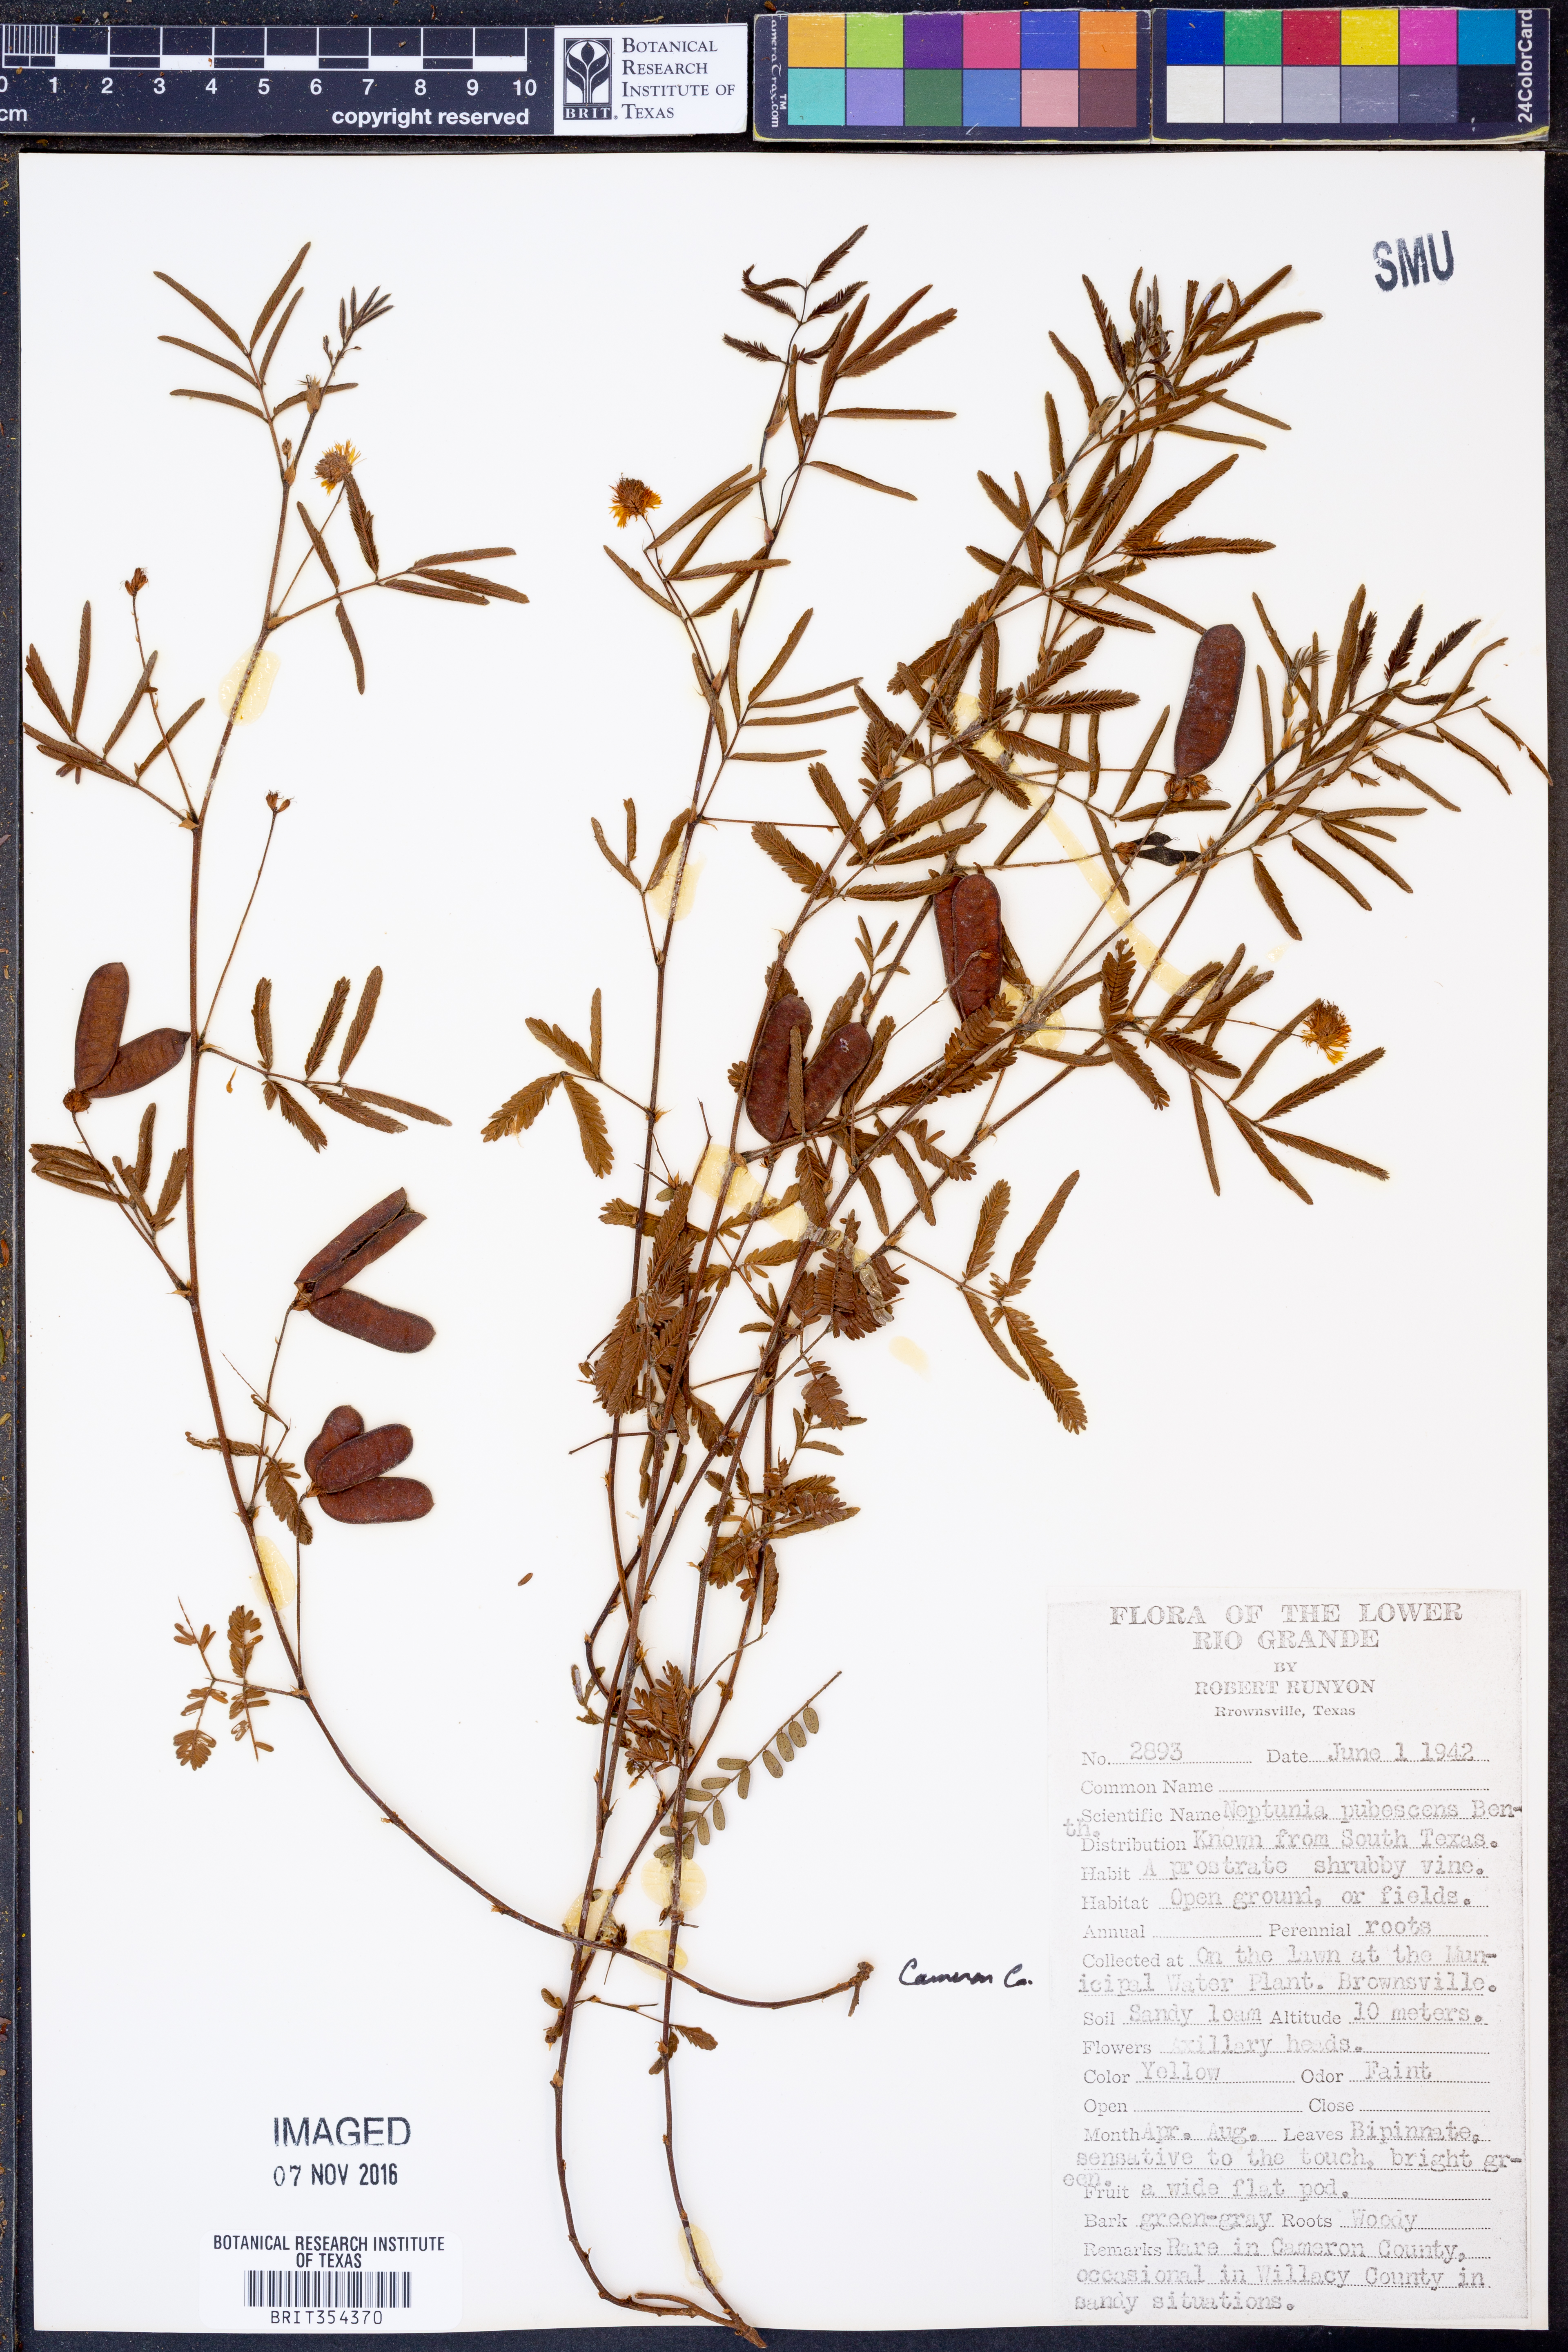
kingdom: Plantae
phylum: Tracheophyta
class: Magnoliopsida
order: Fabales
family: Fabaceae
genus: Neptunia
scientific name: Neptunia pubescens
